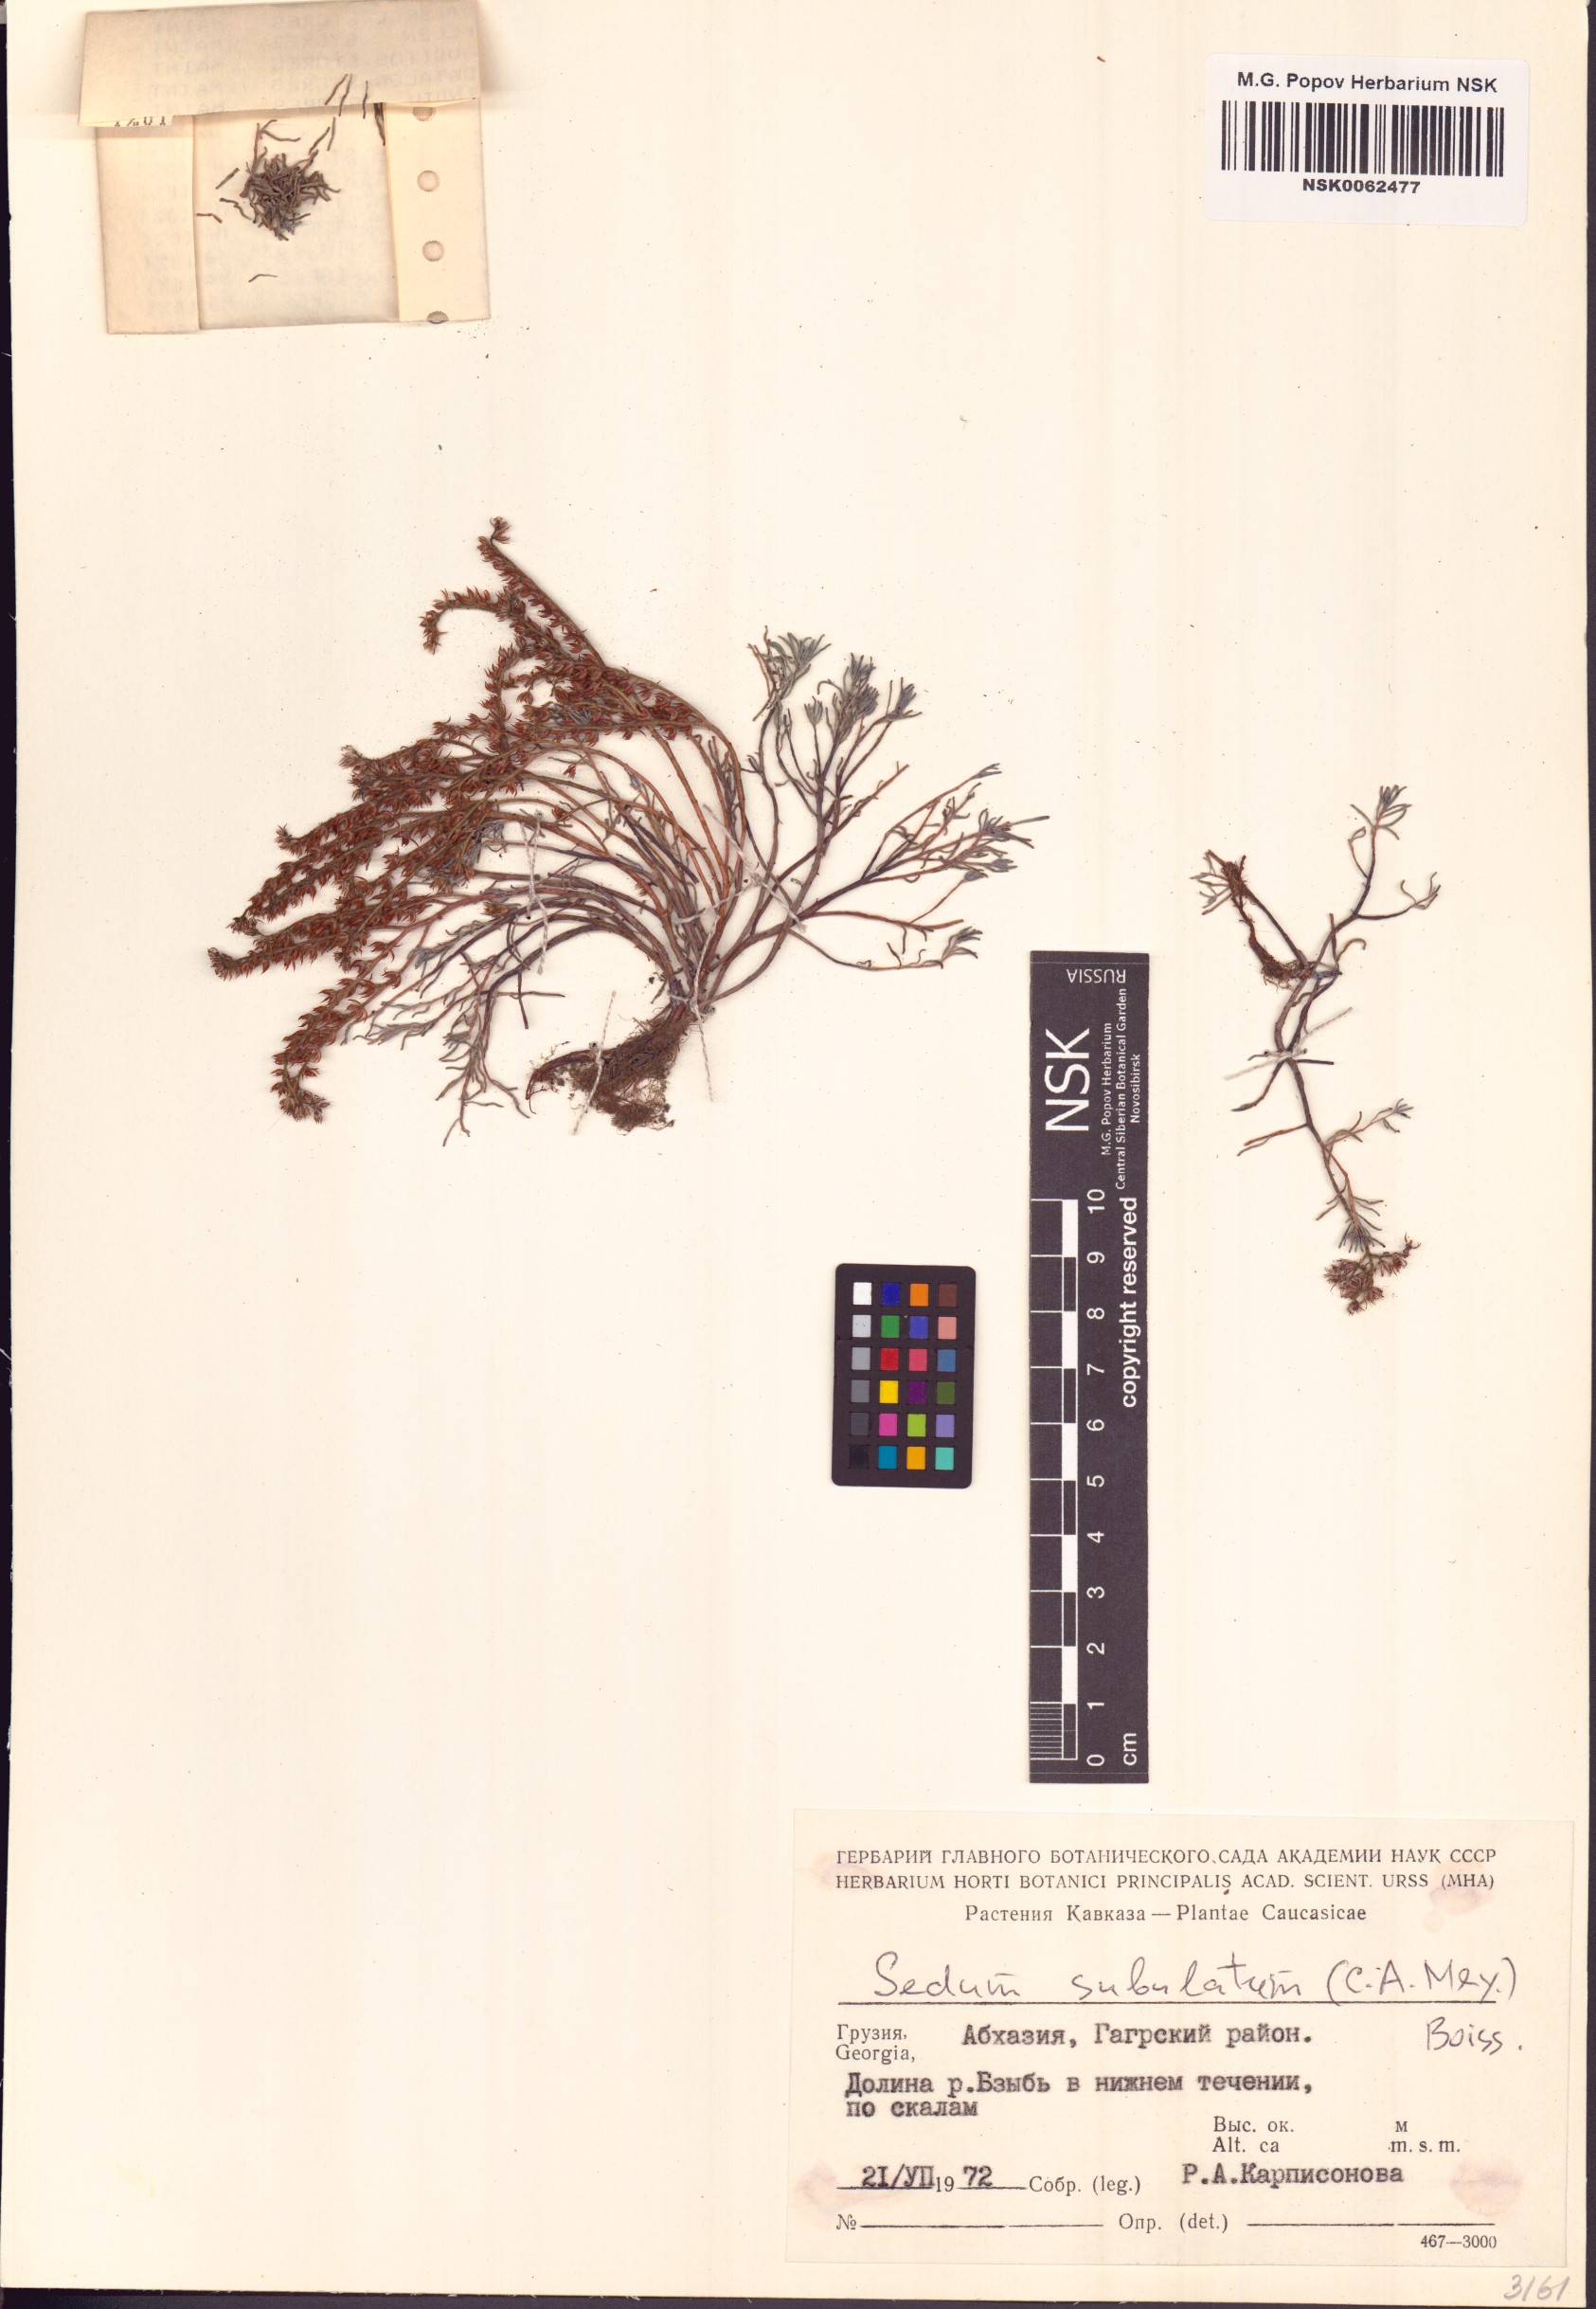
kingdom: Plantae
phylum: Tracheophyta
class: Magnoliopsida
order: Saxifragales
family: Crassulaceae
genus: Petrosedum
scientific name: Petrosedum subulatum
